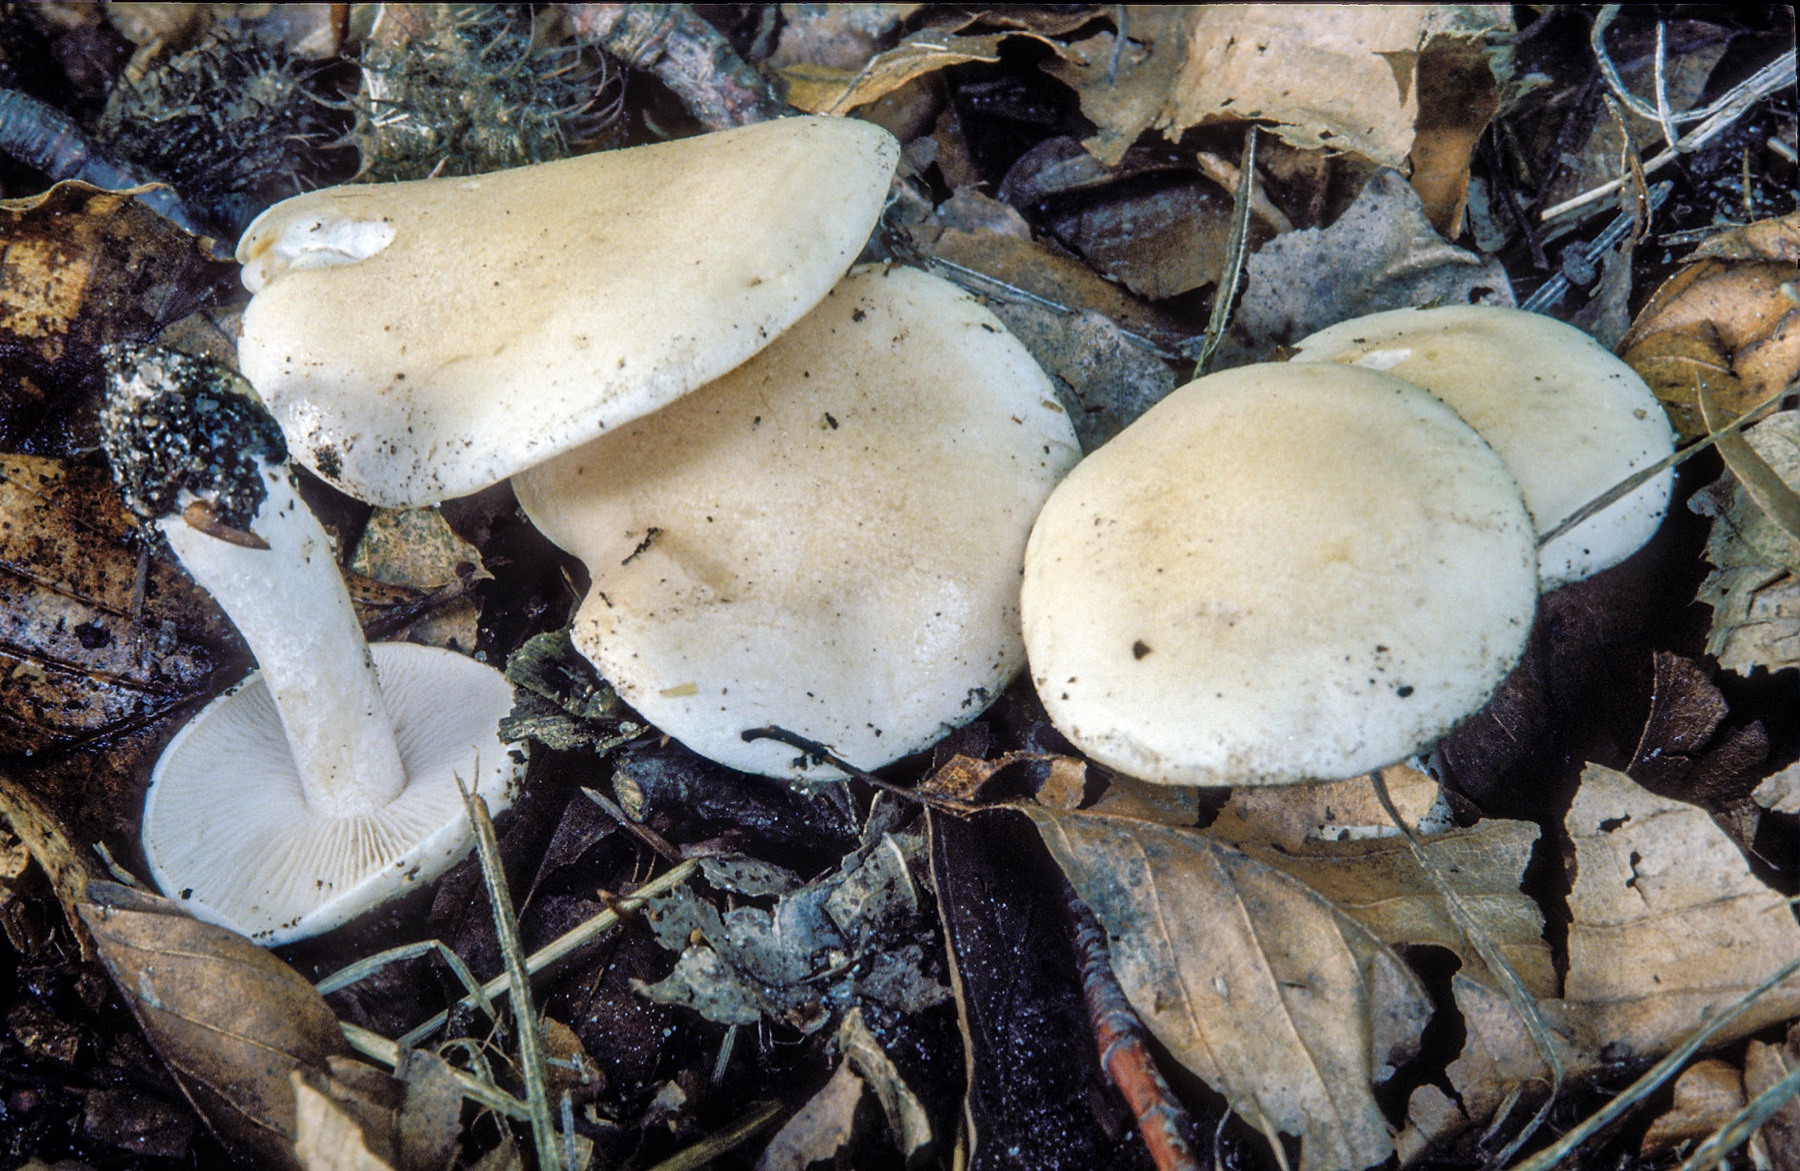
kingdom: Fungi
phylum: Basidiomycota
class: Agaricomycetes
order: Agaricales
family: Hymenogastraceae
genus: Hebeloma
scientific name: Hebeloma album
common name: skør tåreblad
